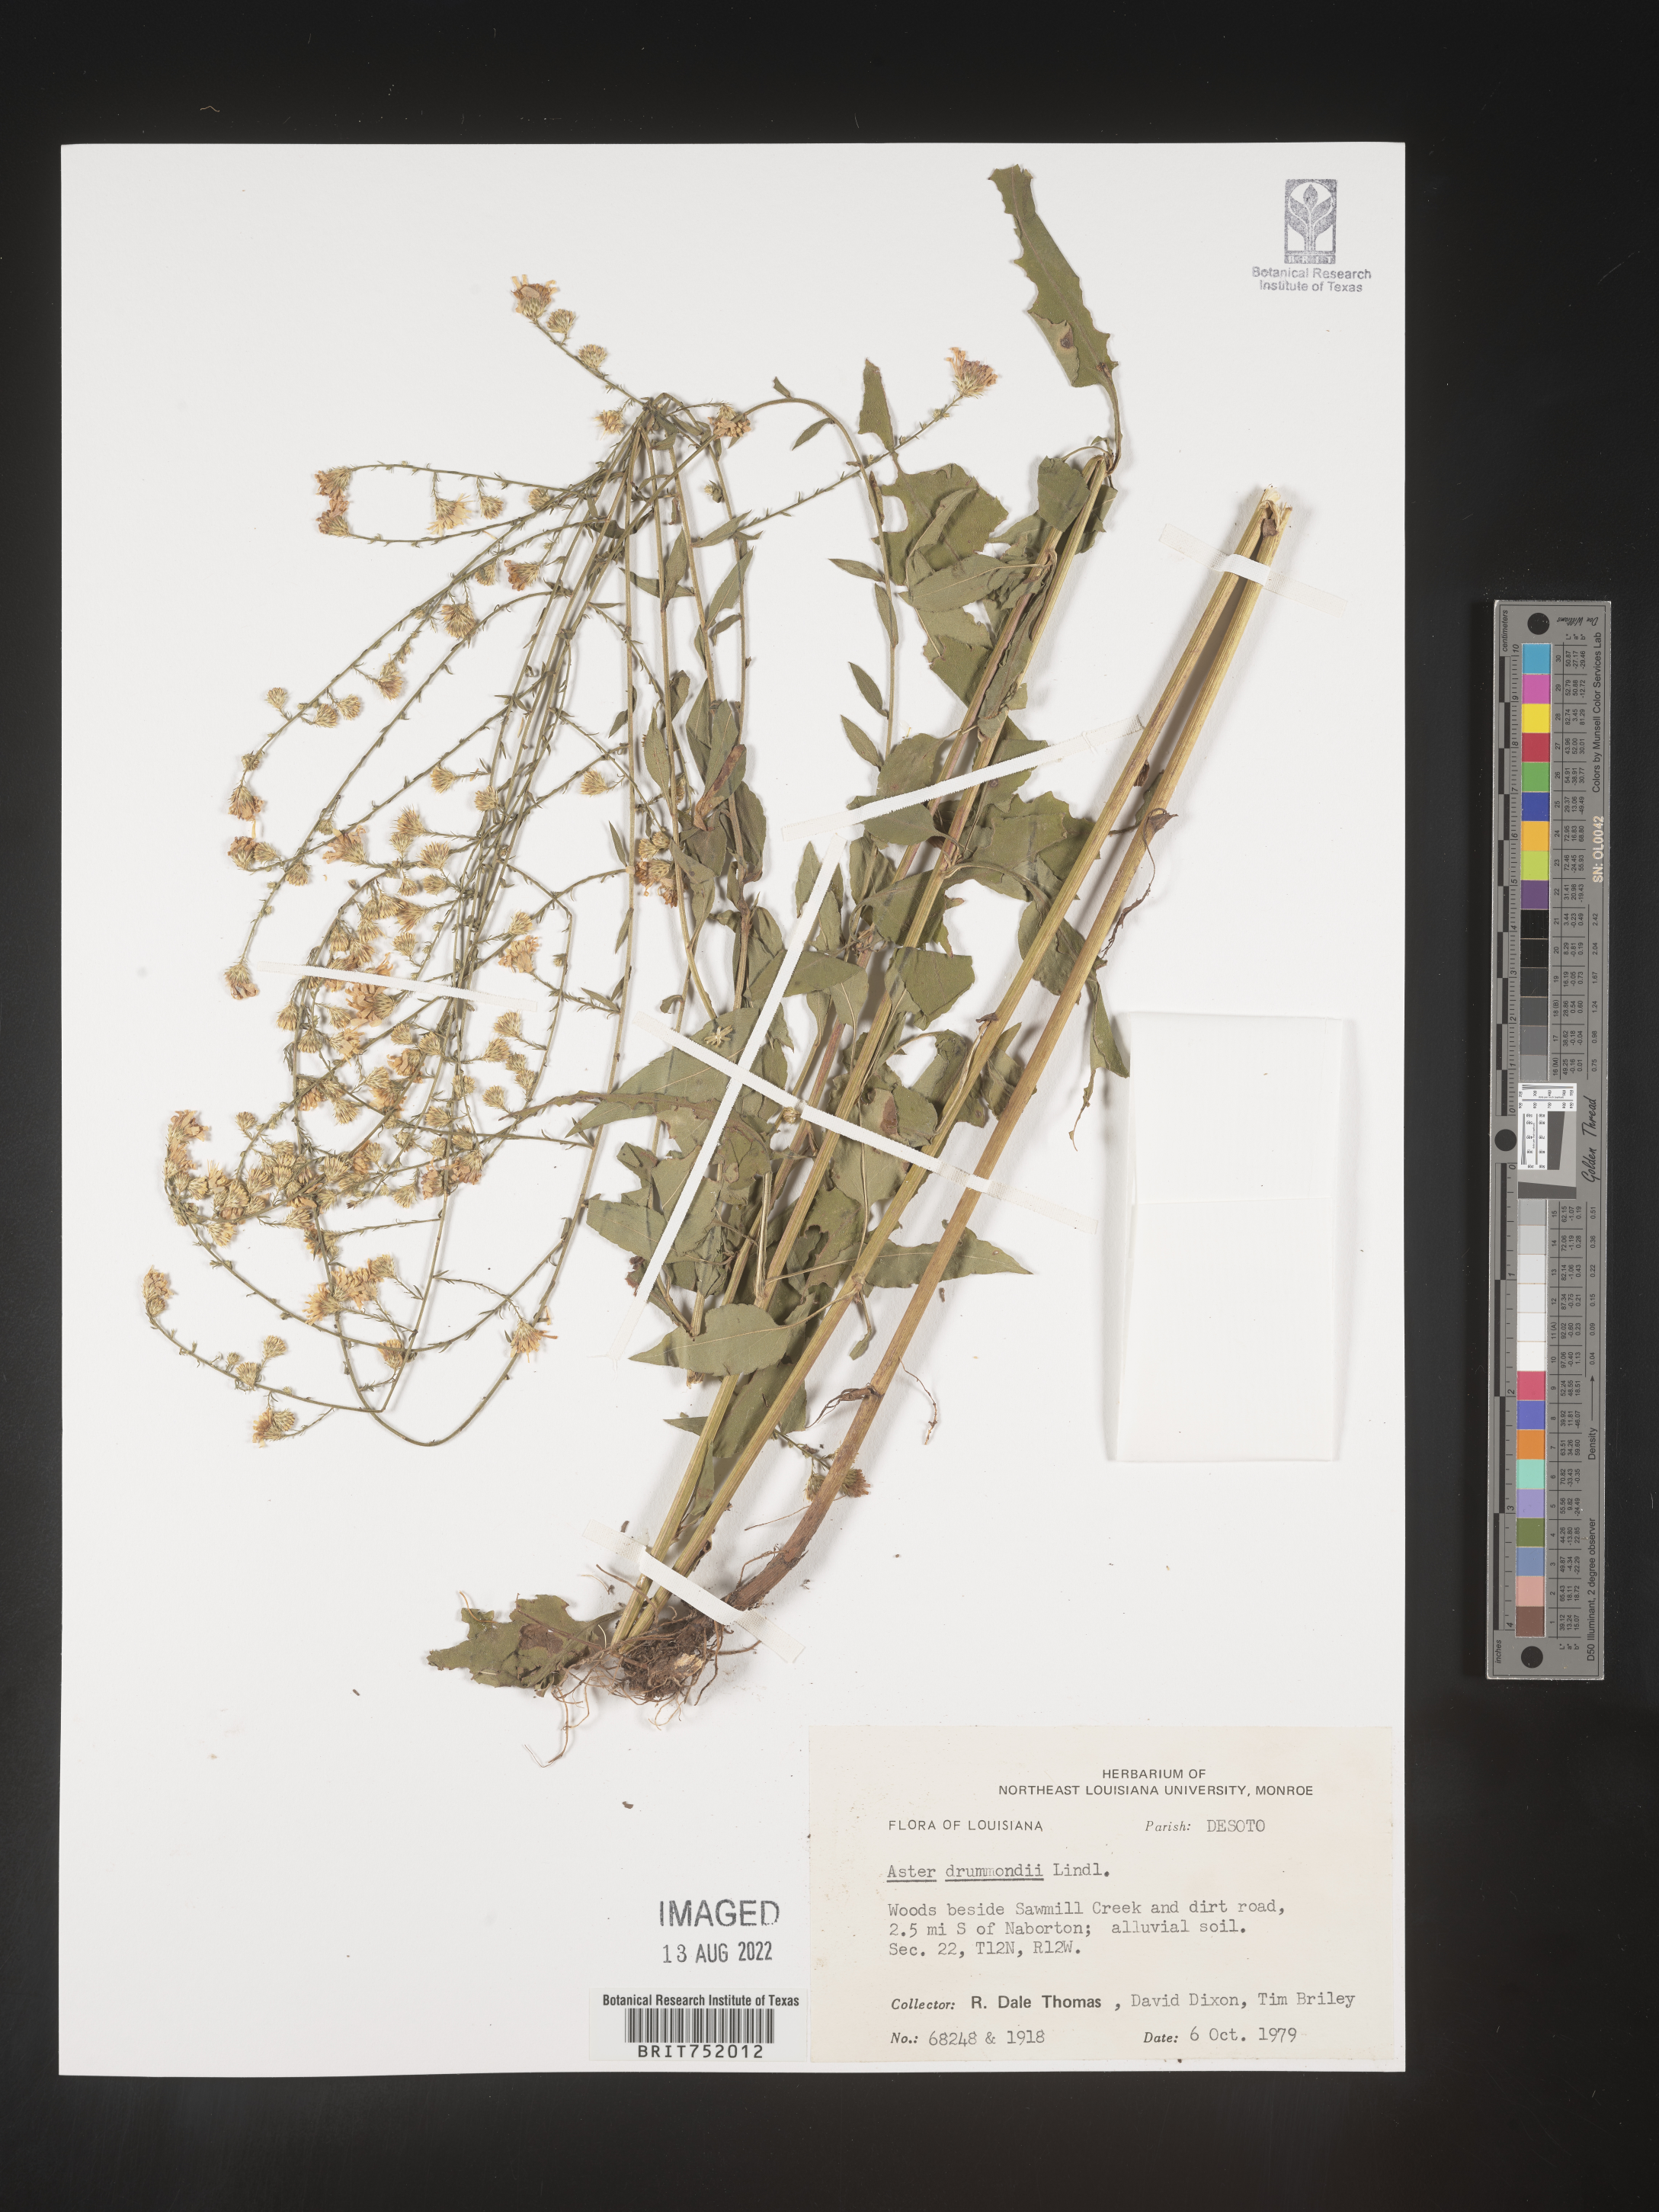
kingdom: Plantae
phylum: Tracheophyta
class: Magnoliopsida
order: Asterales
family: Asteraceae
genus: Symphyotrichum
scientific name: Symphyotrichum drummondii
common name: Drummond's aster
